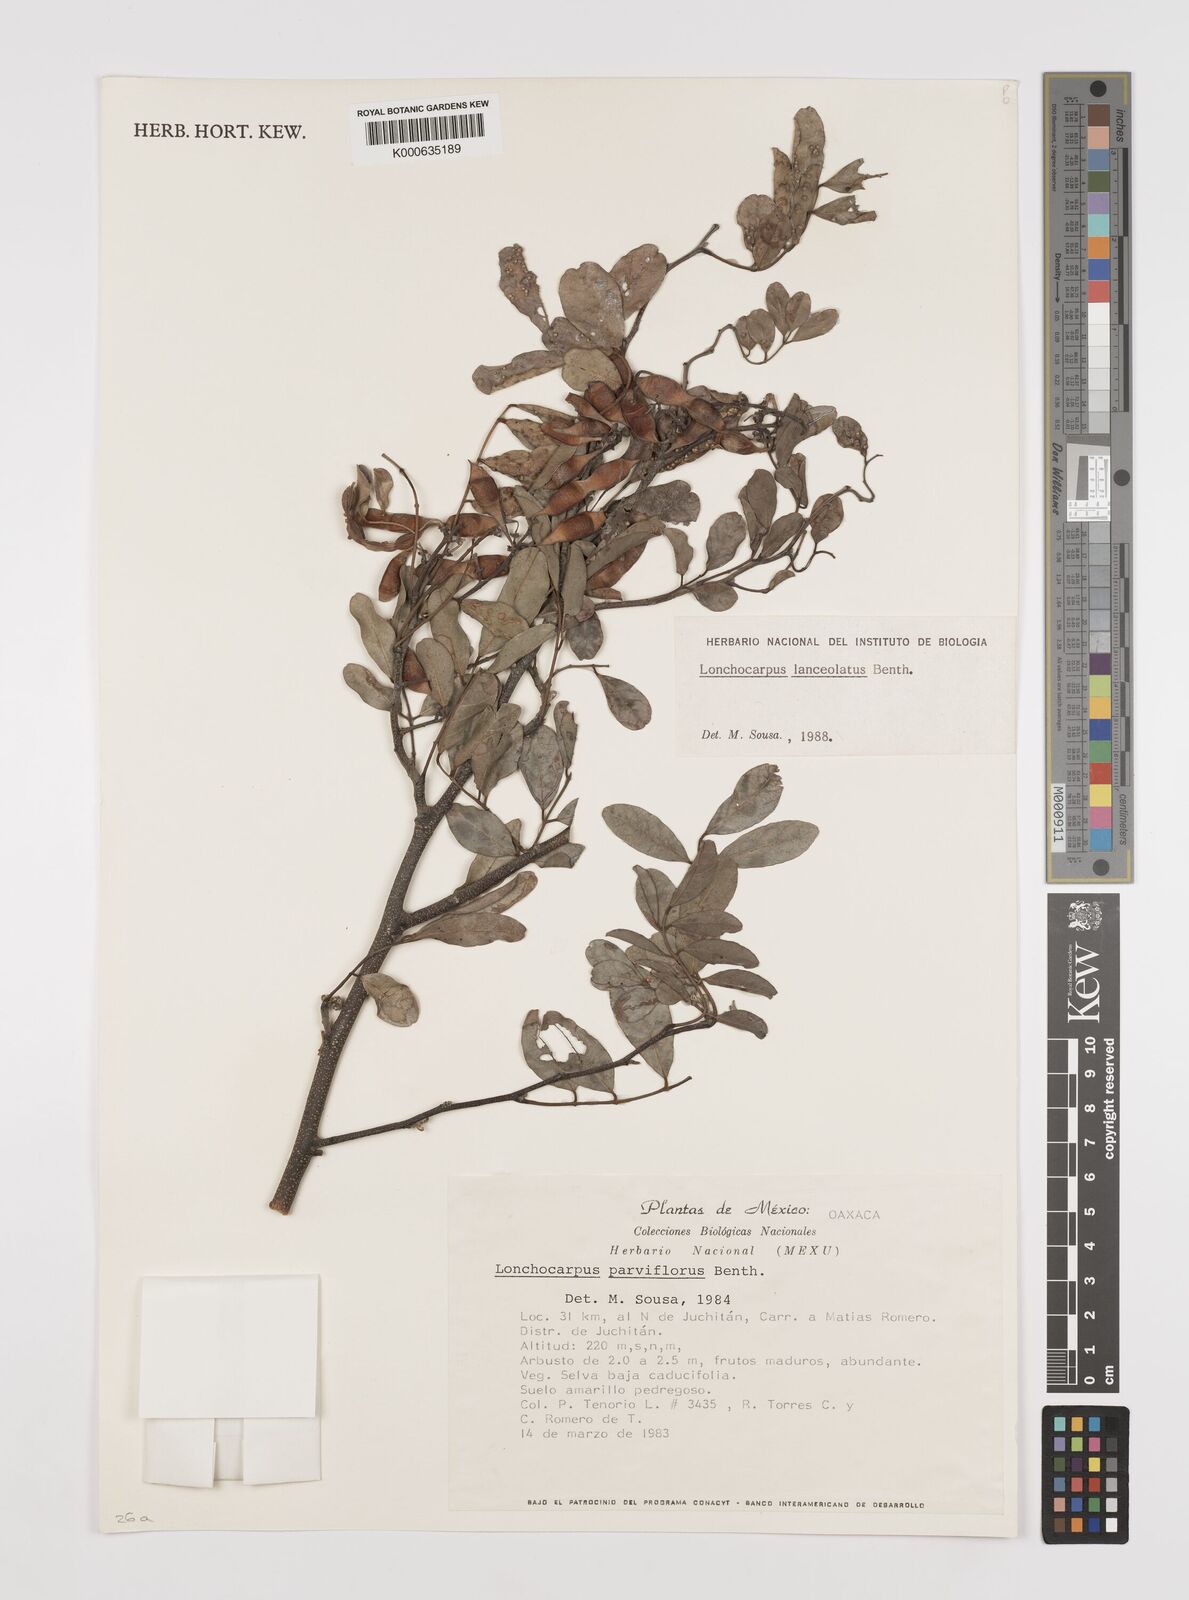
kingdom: Plantae
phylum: Tracheophyta
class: Magnoliopsida
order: Fabales
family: Fabaceae
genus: Lonchocarpus
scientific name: Lonchocarpus lanceolatus
